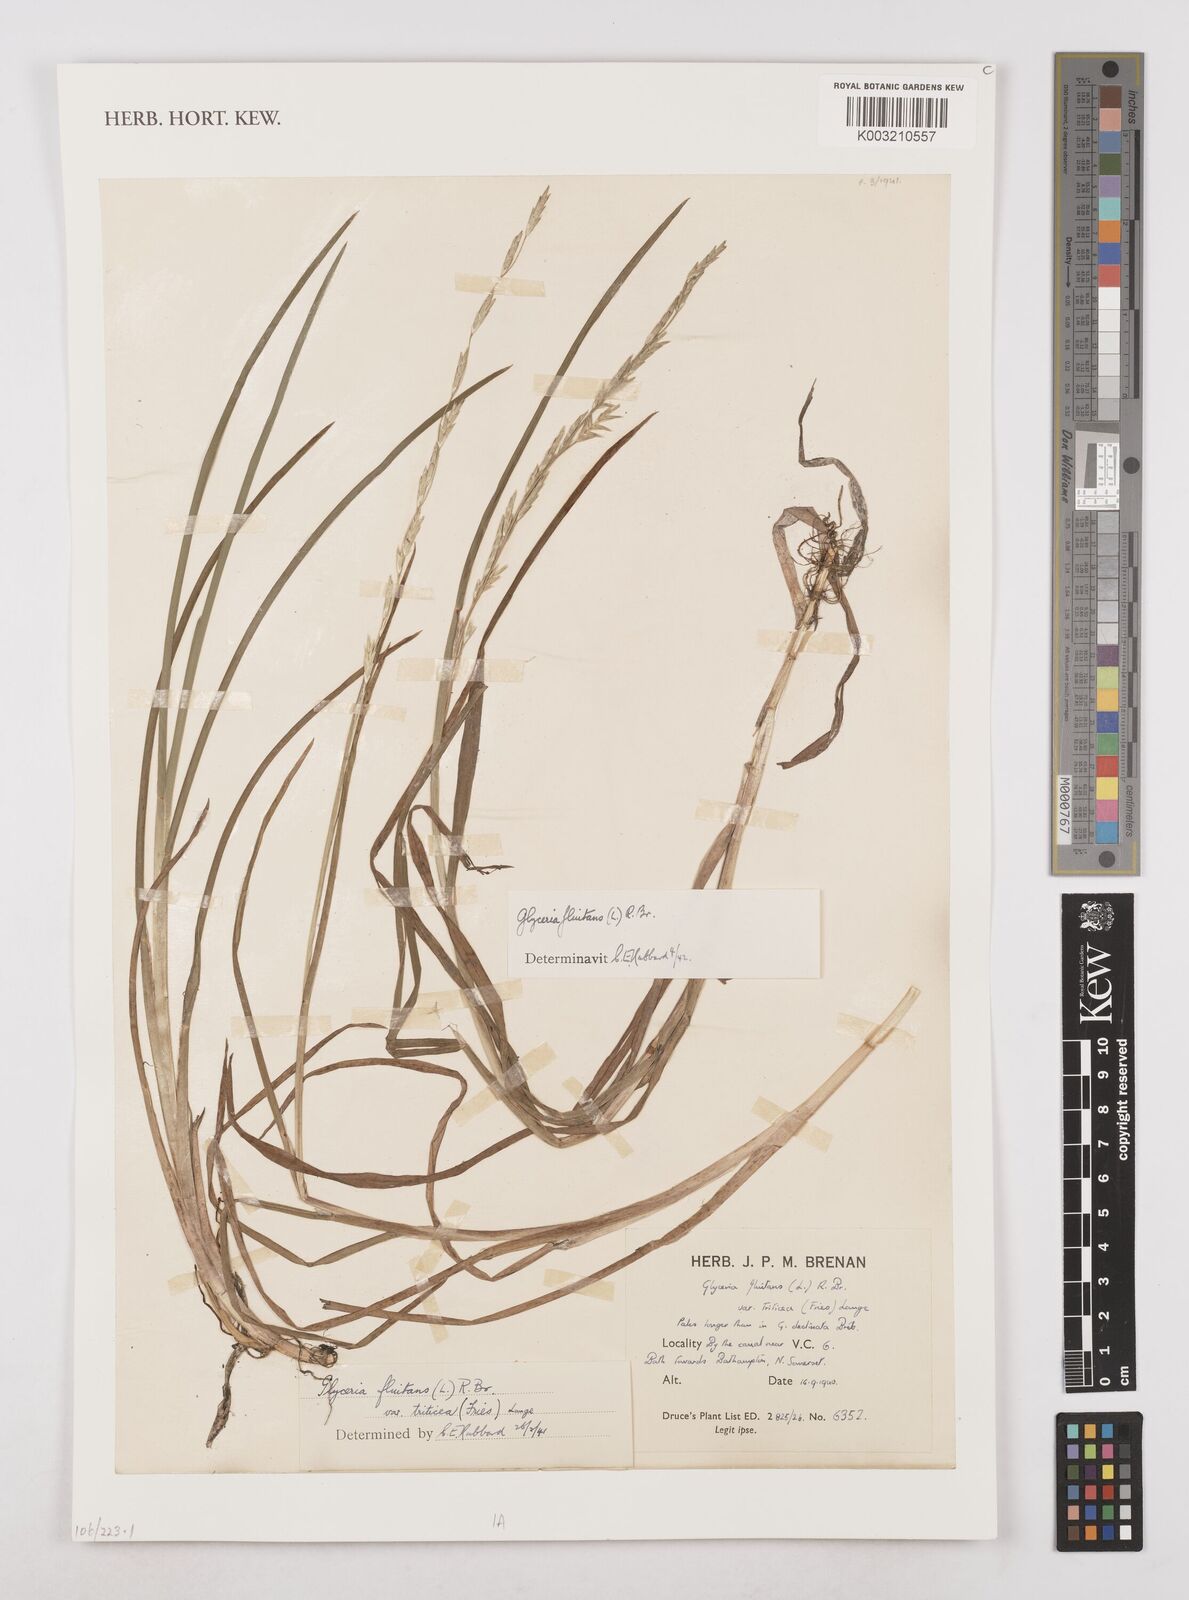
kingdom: Plantae
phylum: Tracheophyta
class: Liliopsida
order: Poales
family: Poaceae
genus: Glyceria
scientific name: Glyceria fluitans
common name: Floating sweet-grass
